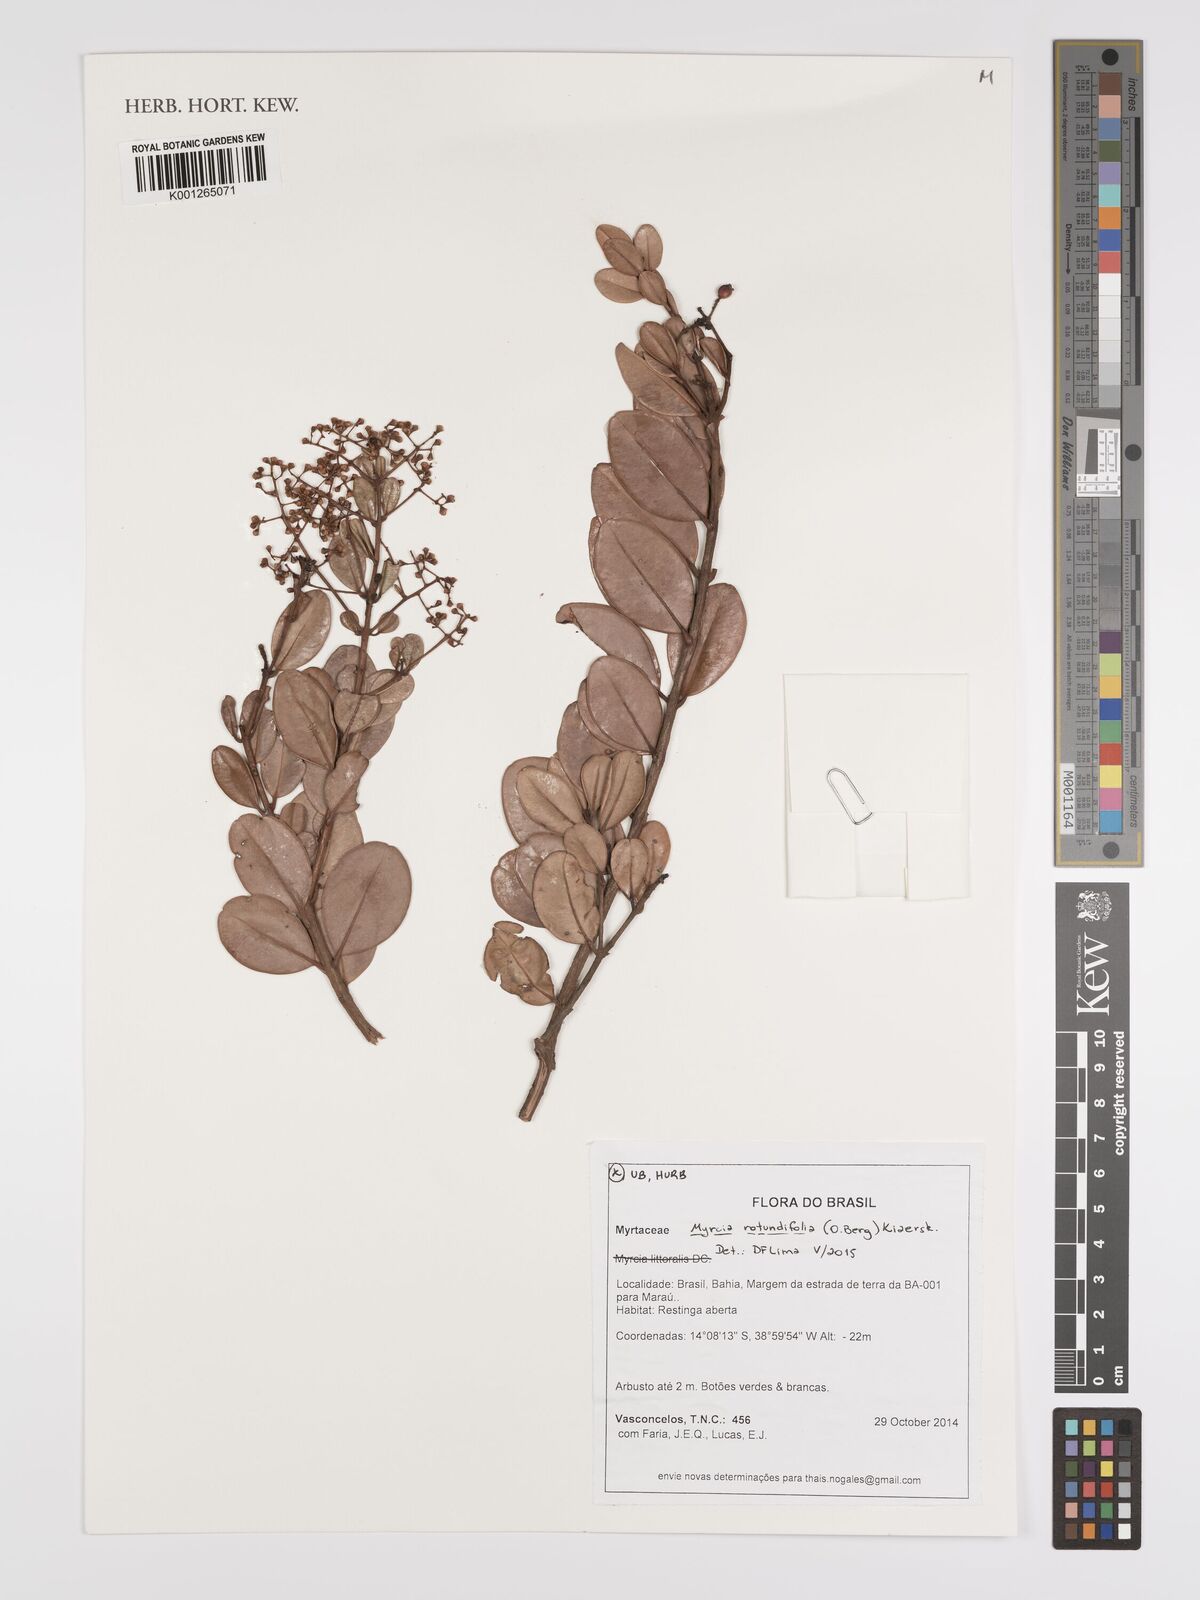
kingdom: Plantae
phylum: Tracheophyta
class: Magnoliopsida
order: Myrtales
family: Myrtaceae
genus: Myrcia
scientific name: Myrcia rotundifolia
